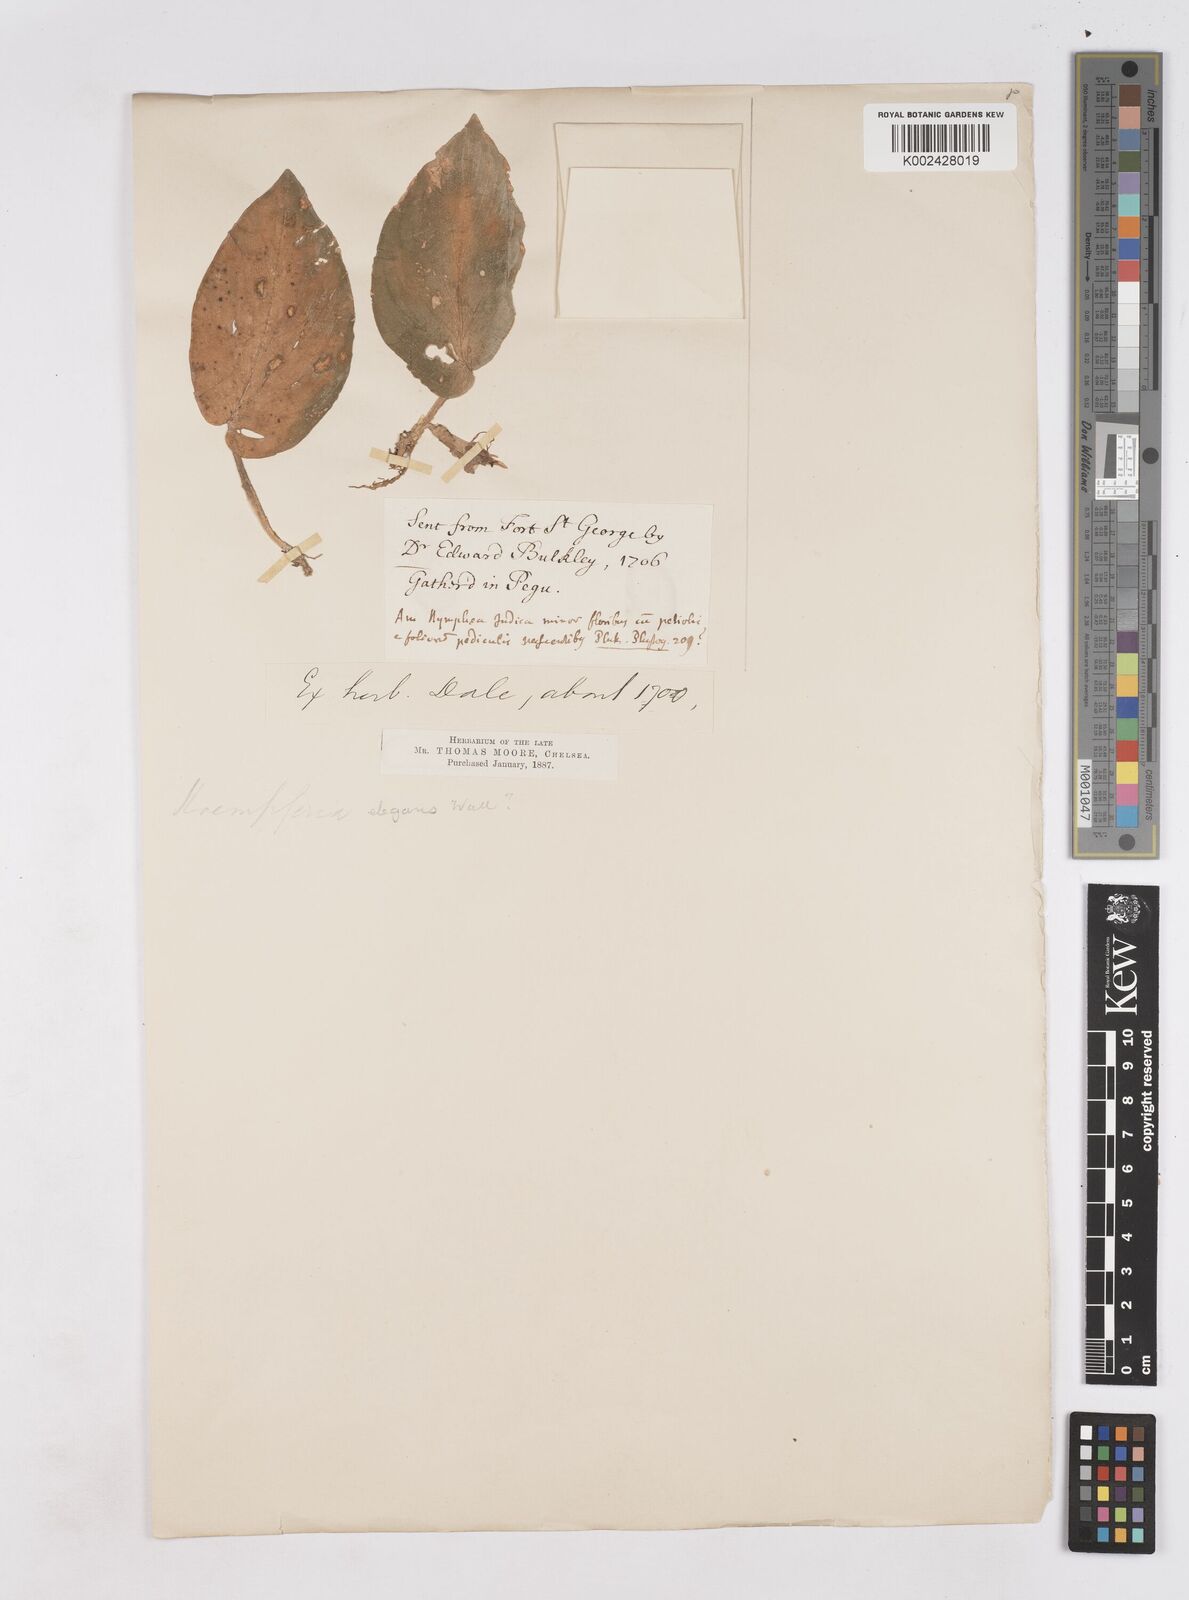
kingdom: Plantae
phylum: Tracheophyta
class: Liliopsida
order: Zingiberales
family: Zingiberaceae
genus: Kaempferia
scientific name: Kaempferia elegans
